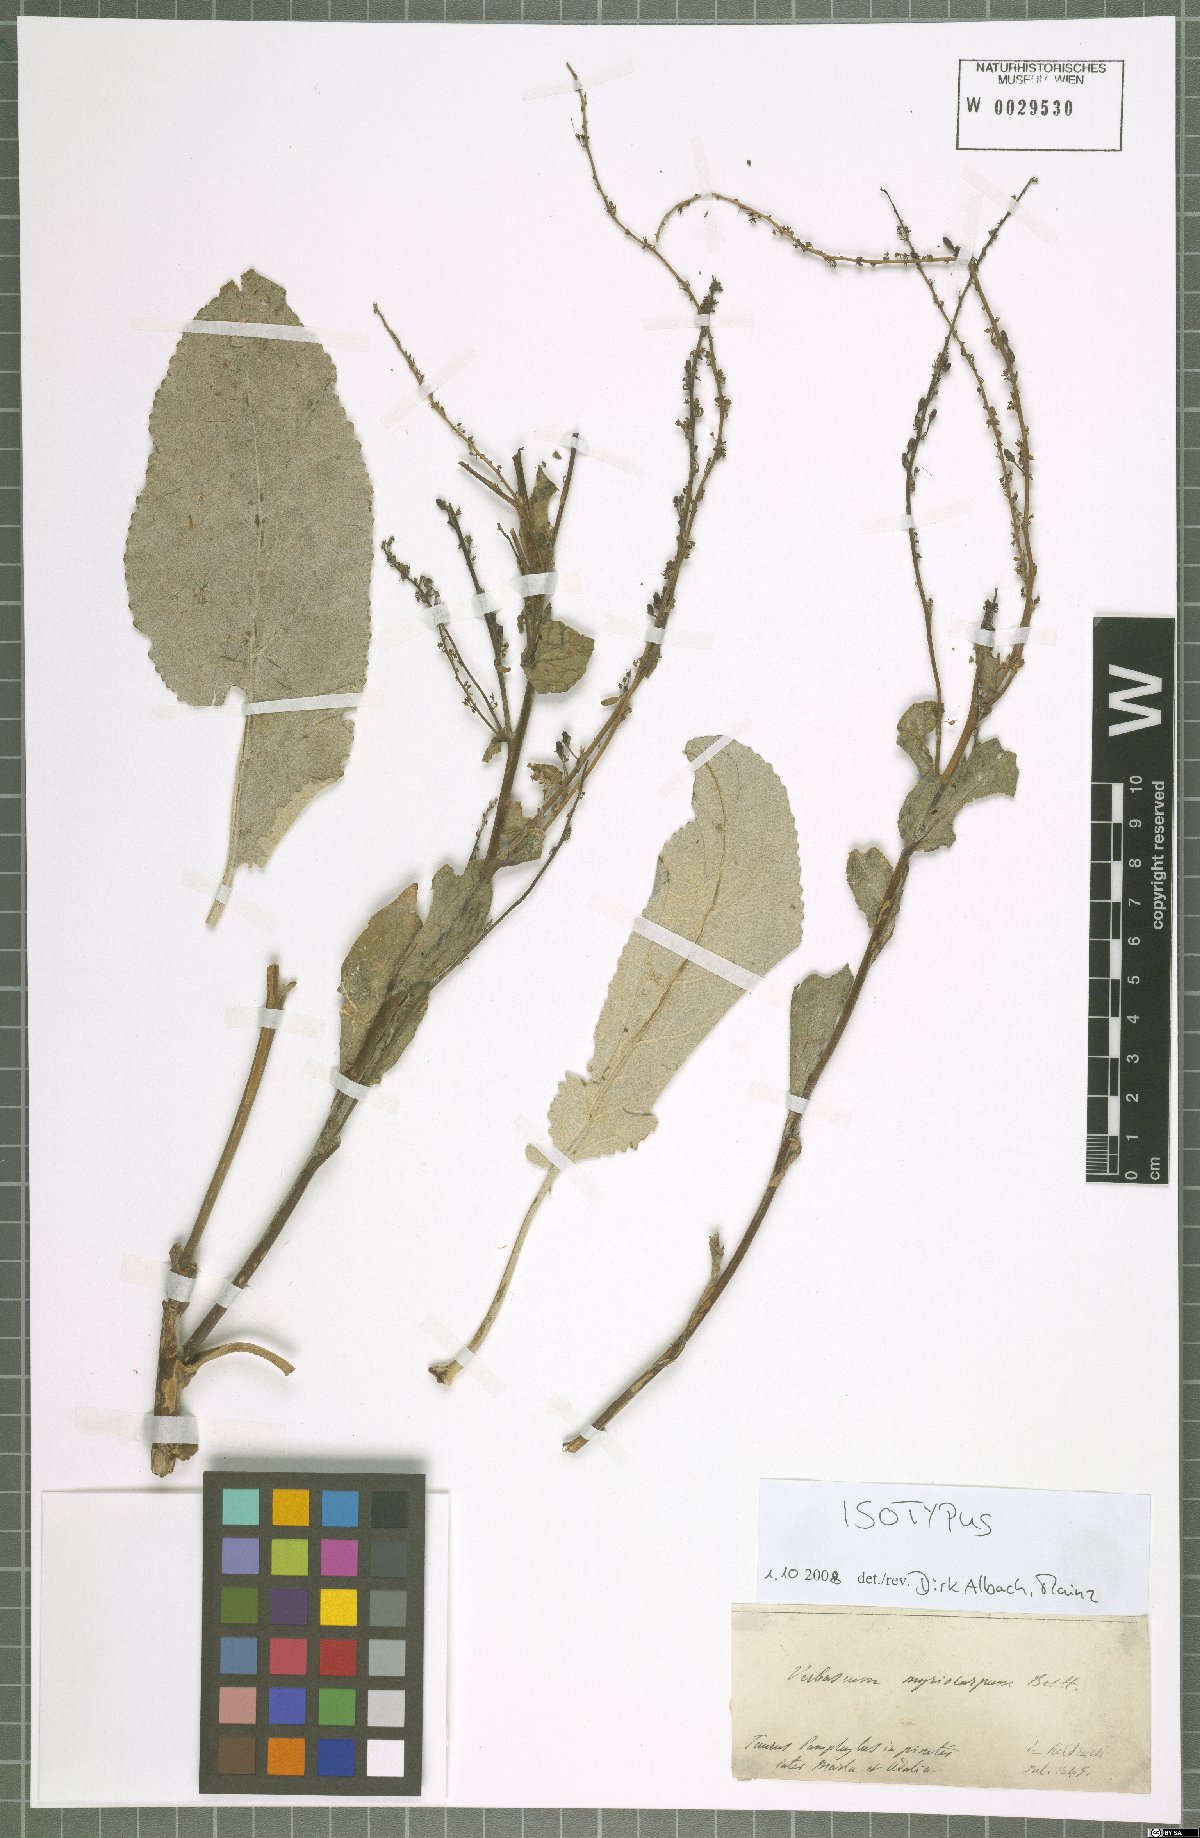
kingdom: Plantae
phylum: Tracheophyta
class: Magnoliopsida
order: Lamiales
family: Scrophulariaceae
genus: Verbascum
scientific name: Verbascum myriocarpum
